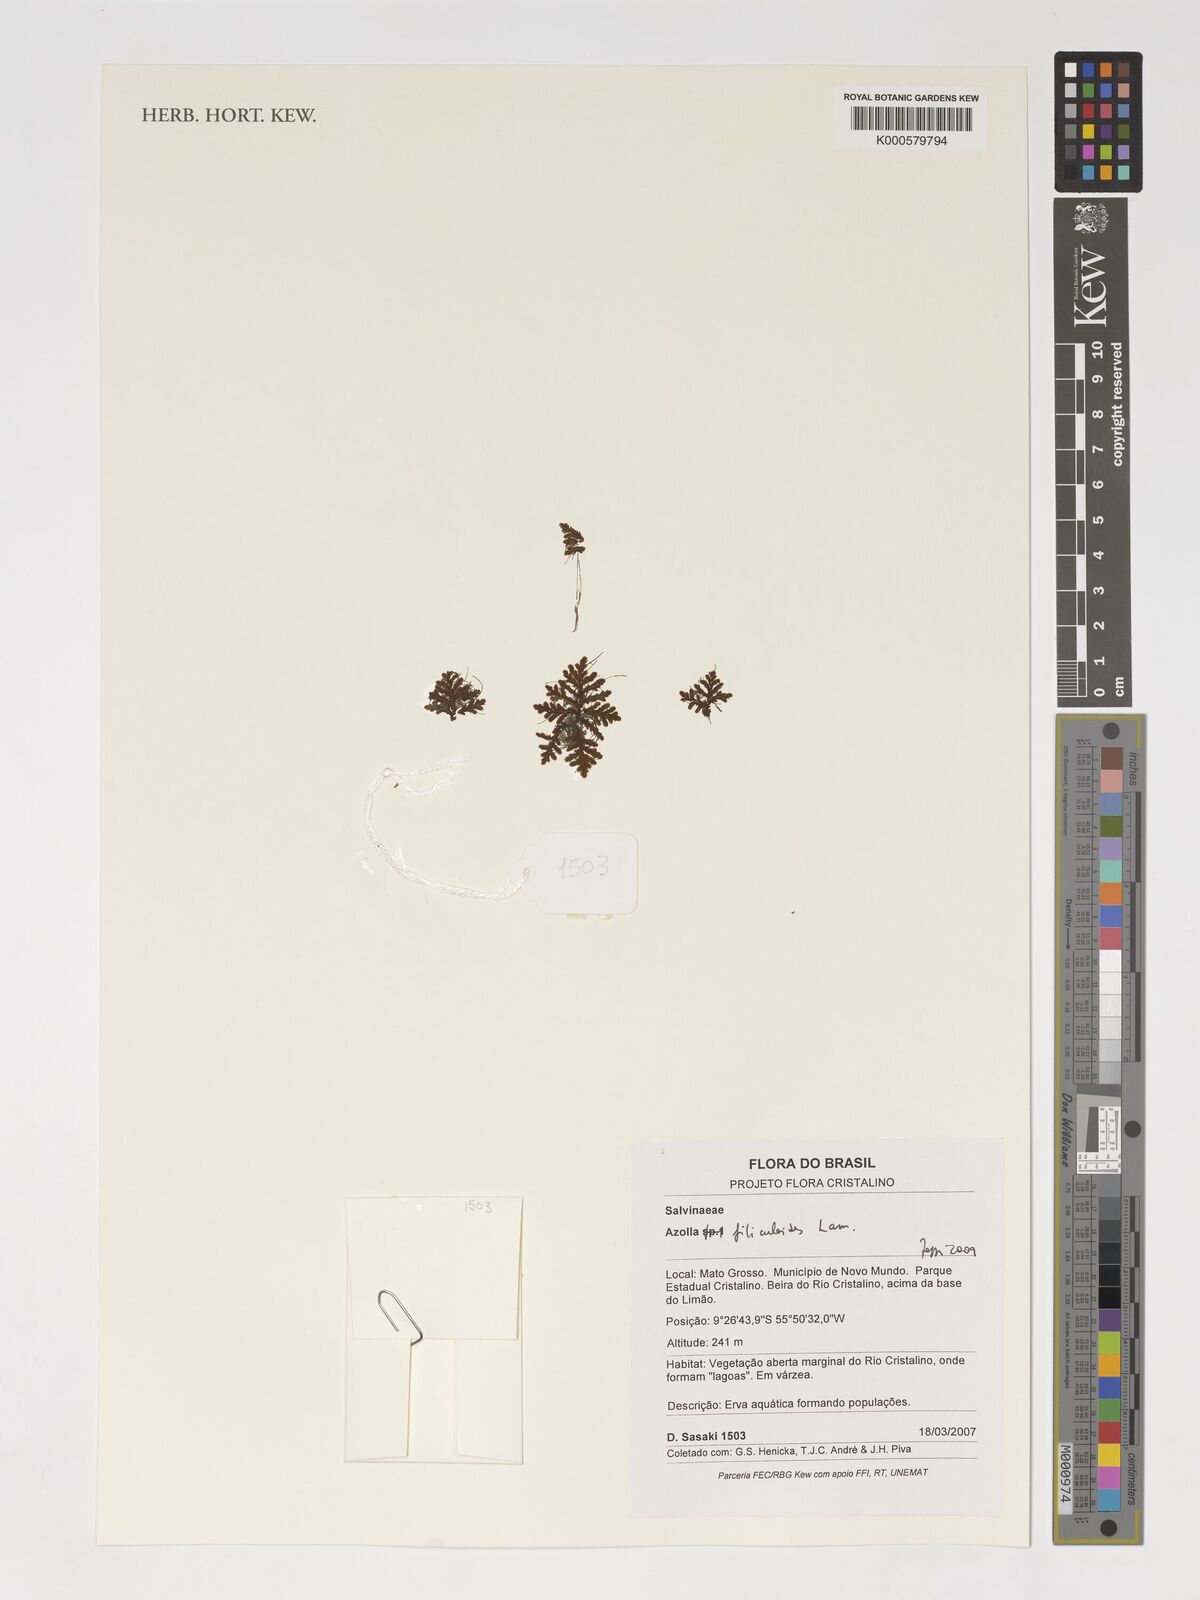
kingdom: Plantae
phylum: Tracheophyta
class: Polypodiopsida
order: Salviniales
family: Salviniaceae
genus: Azolla
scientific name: Azolla filiculoides
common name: Water fern
